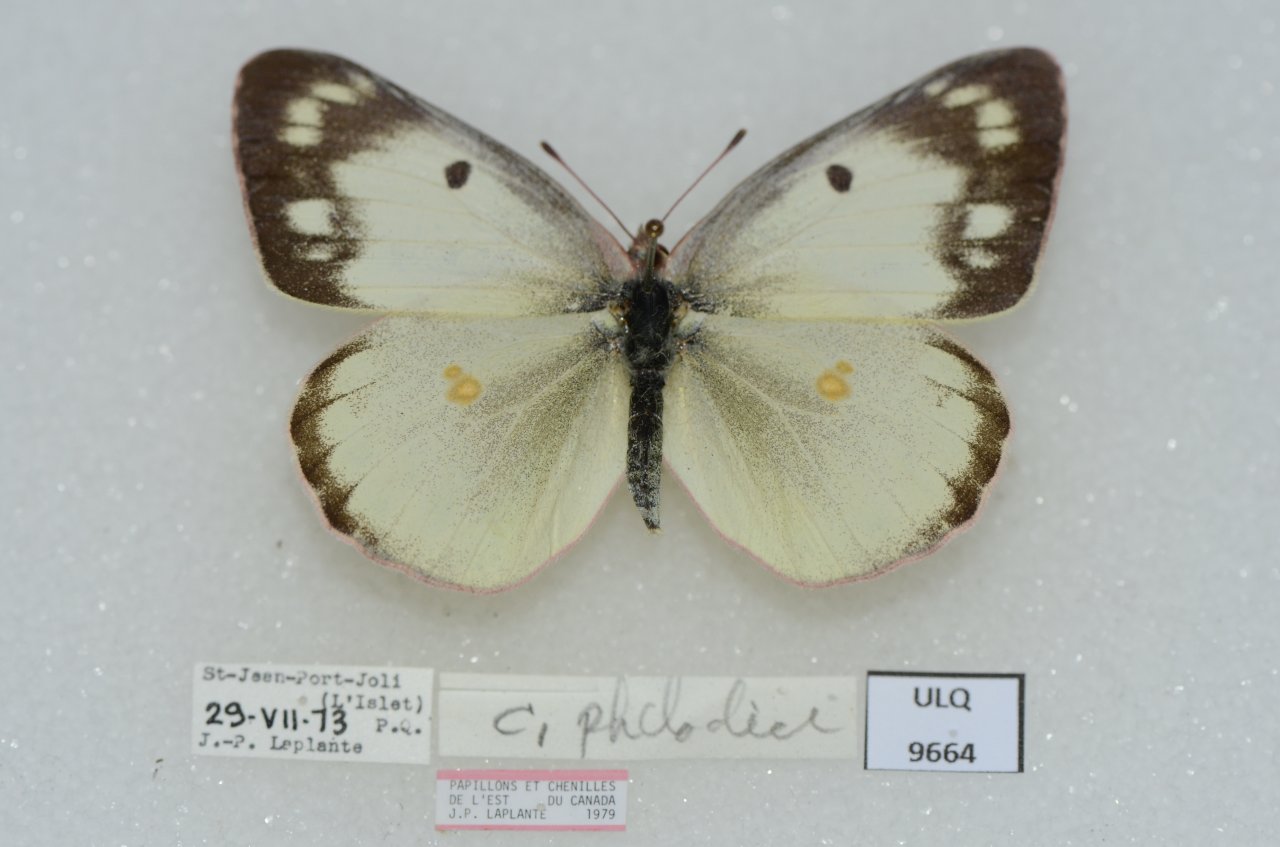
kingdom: Animalia
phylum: Arthropoda
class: Insecta
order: Lepidoptera
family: Pieridae
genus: Colias
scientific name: Colias philodice
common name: Clouded Sulphur
